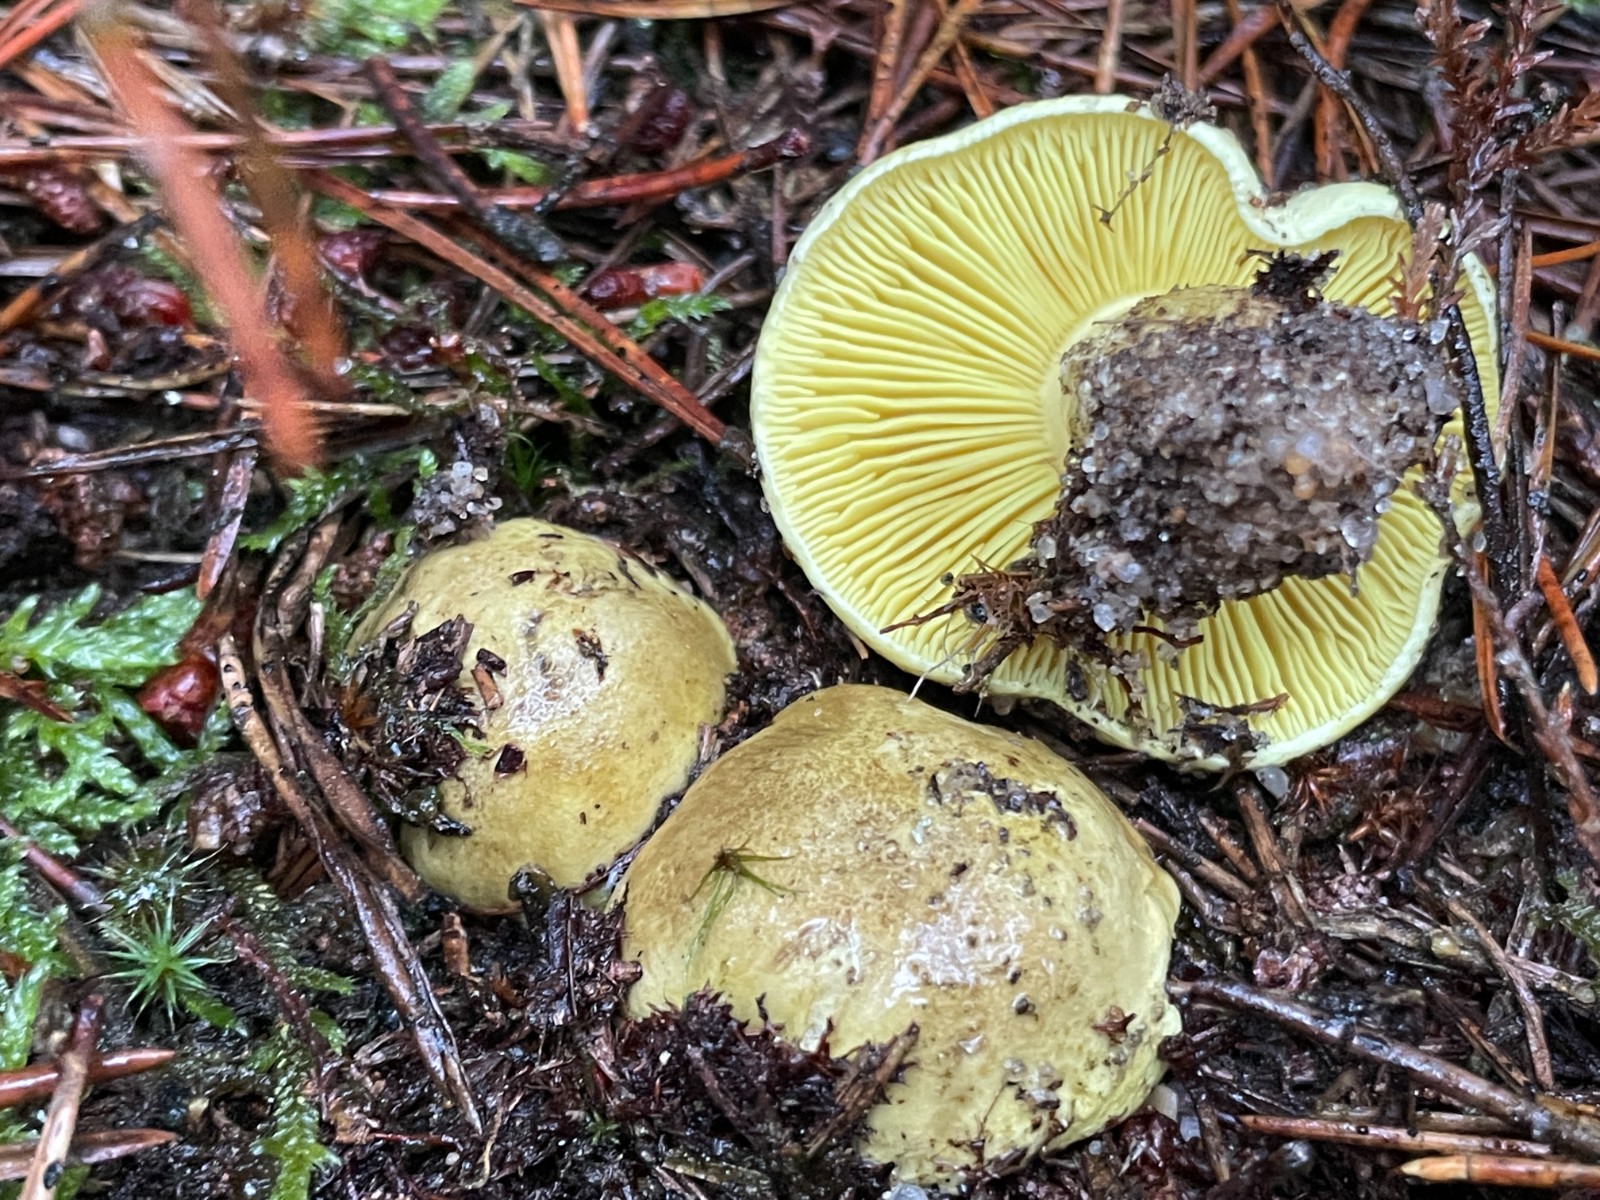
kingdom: Fungi
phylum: Basidiomycota
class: Agaricomycetes
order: Agaricales
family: Tricholomataceae
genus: Tricholoma
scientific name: Tricholoma equestre
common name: ægte ridderhat
